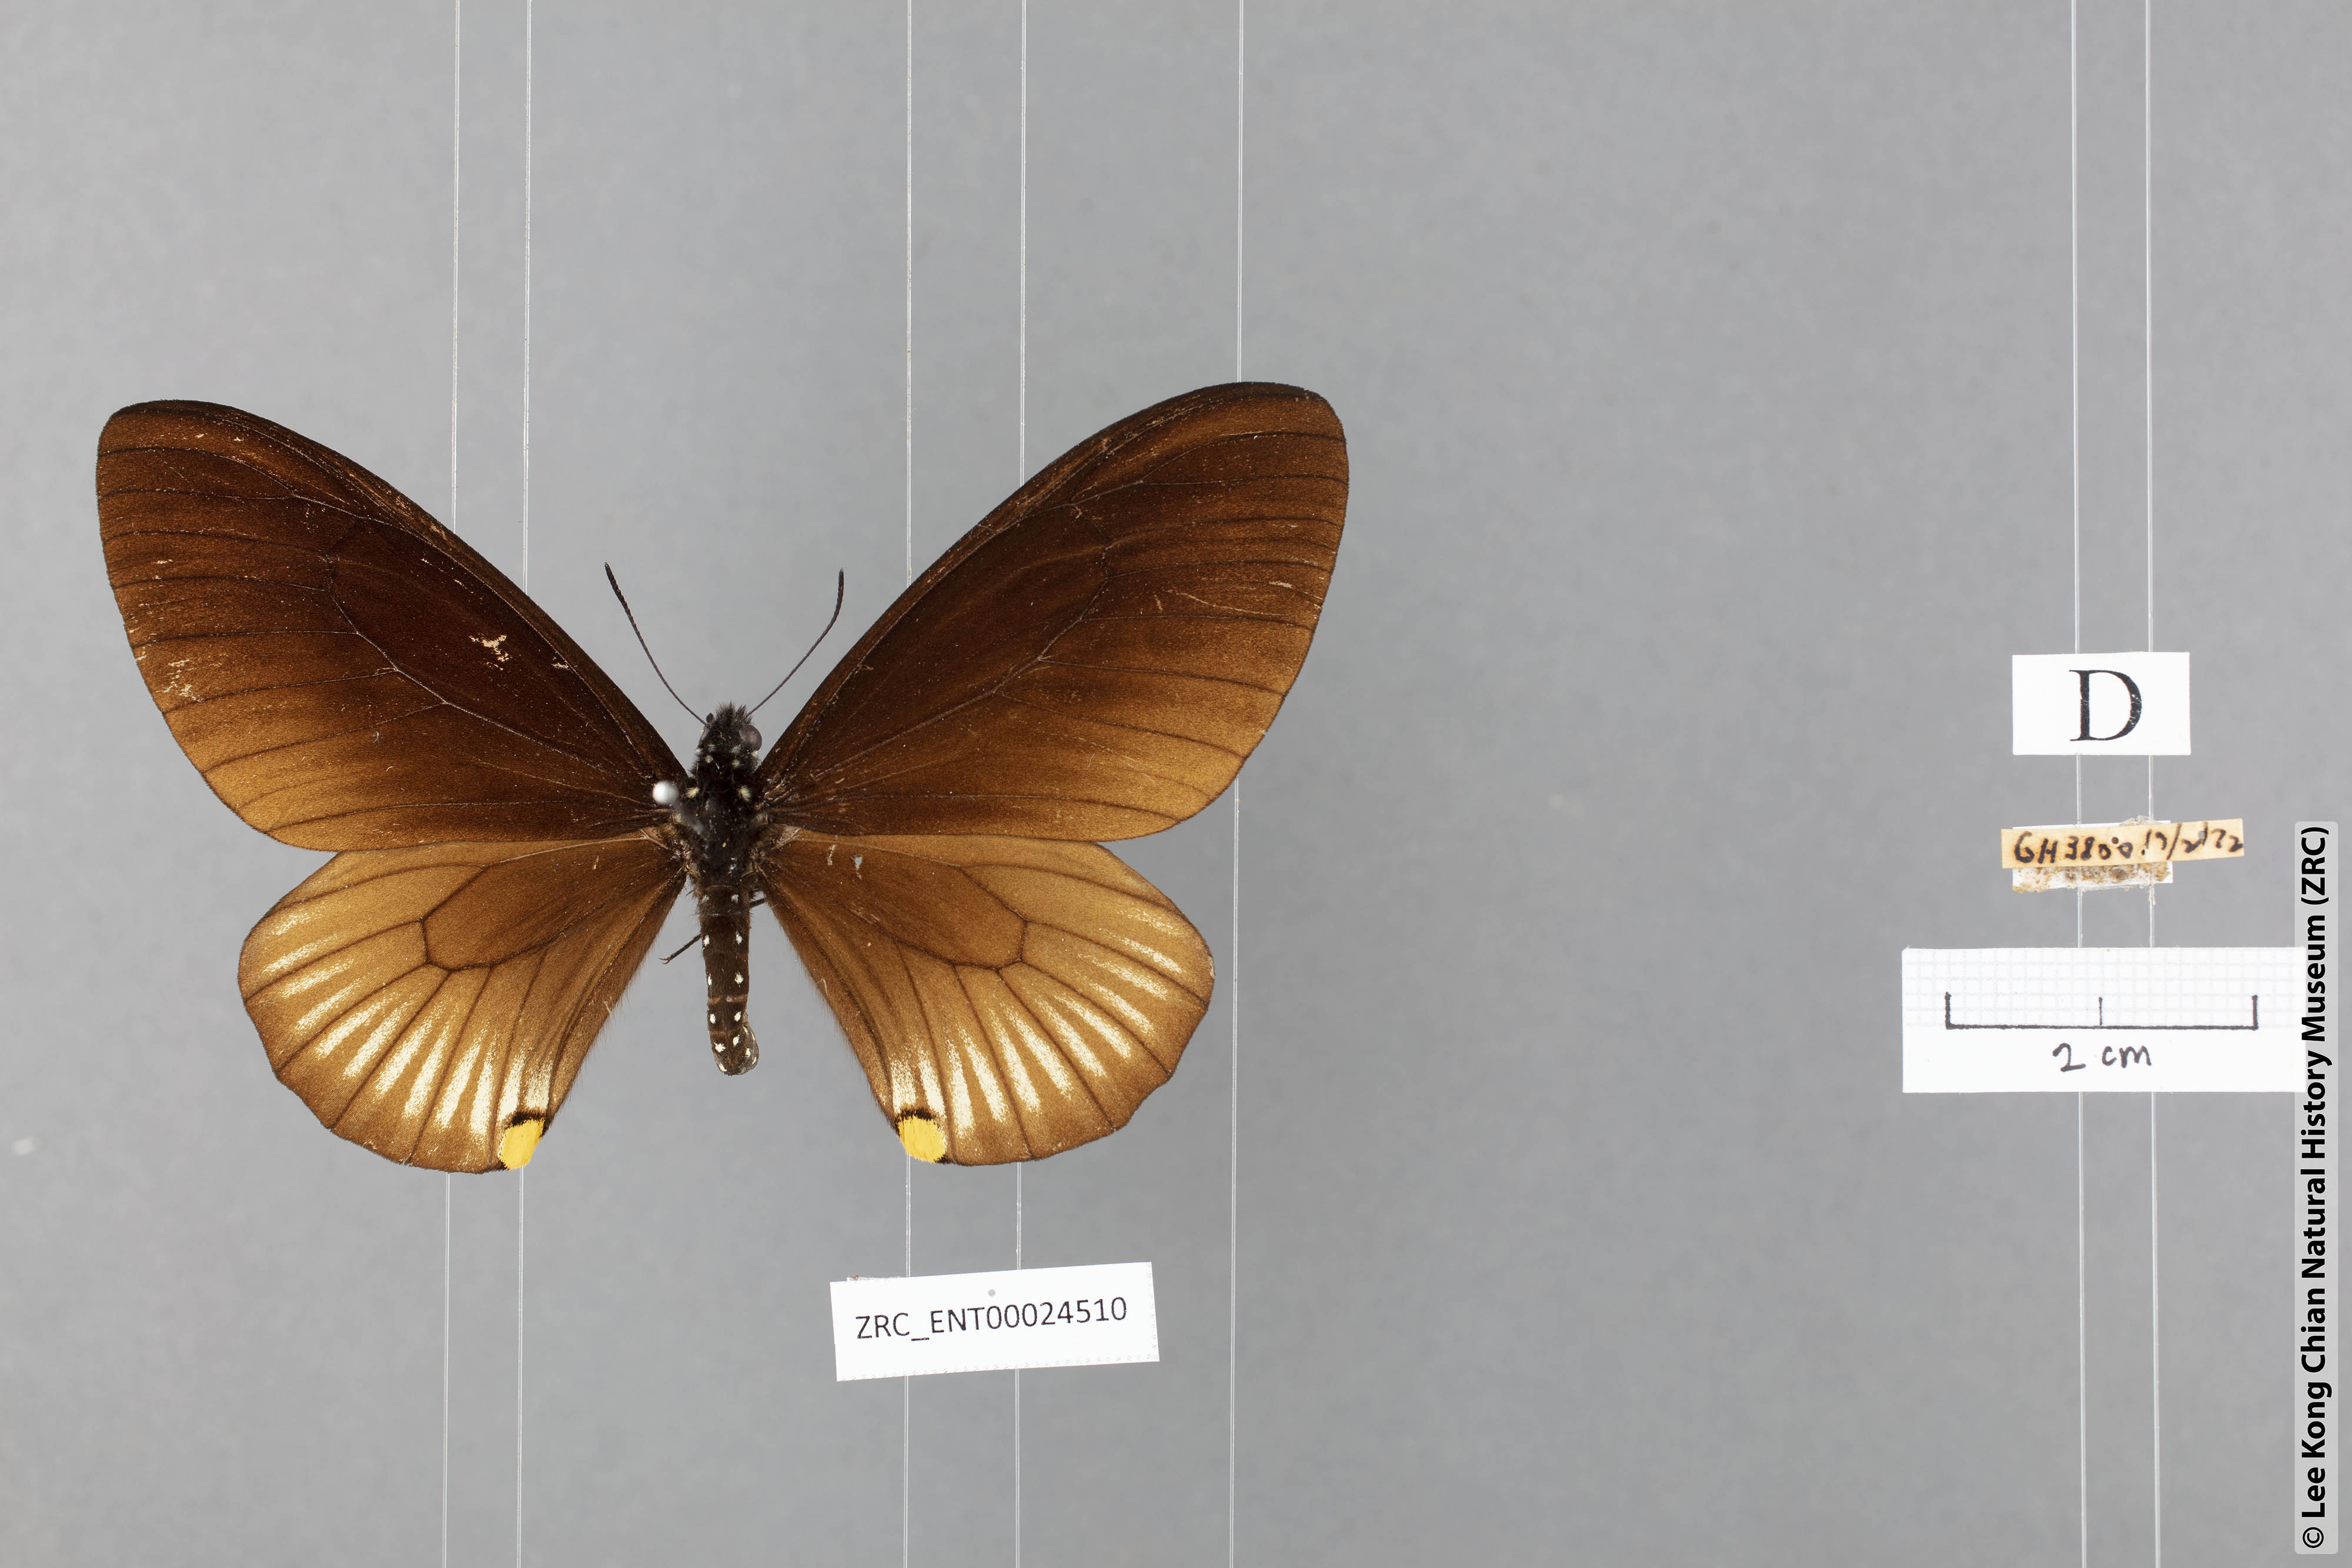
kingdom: Animalia
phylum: Arthropoda
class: Insecta
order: Lepidoptera
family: Papilionidae
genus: Chilasa
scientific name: Chilasa slateri
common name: Blue-striped mime
